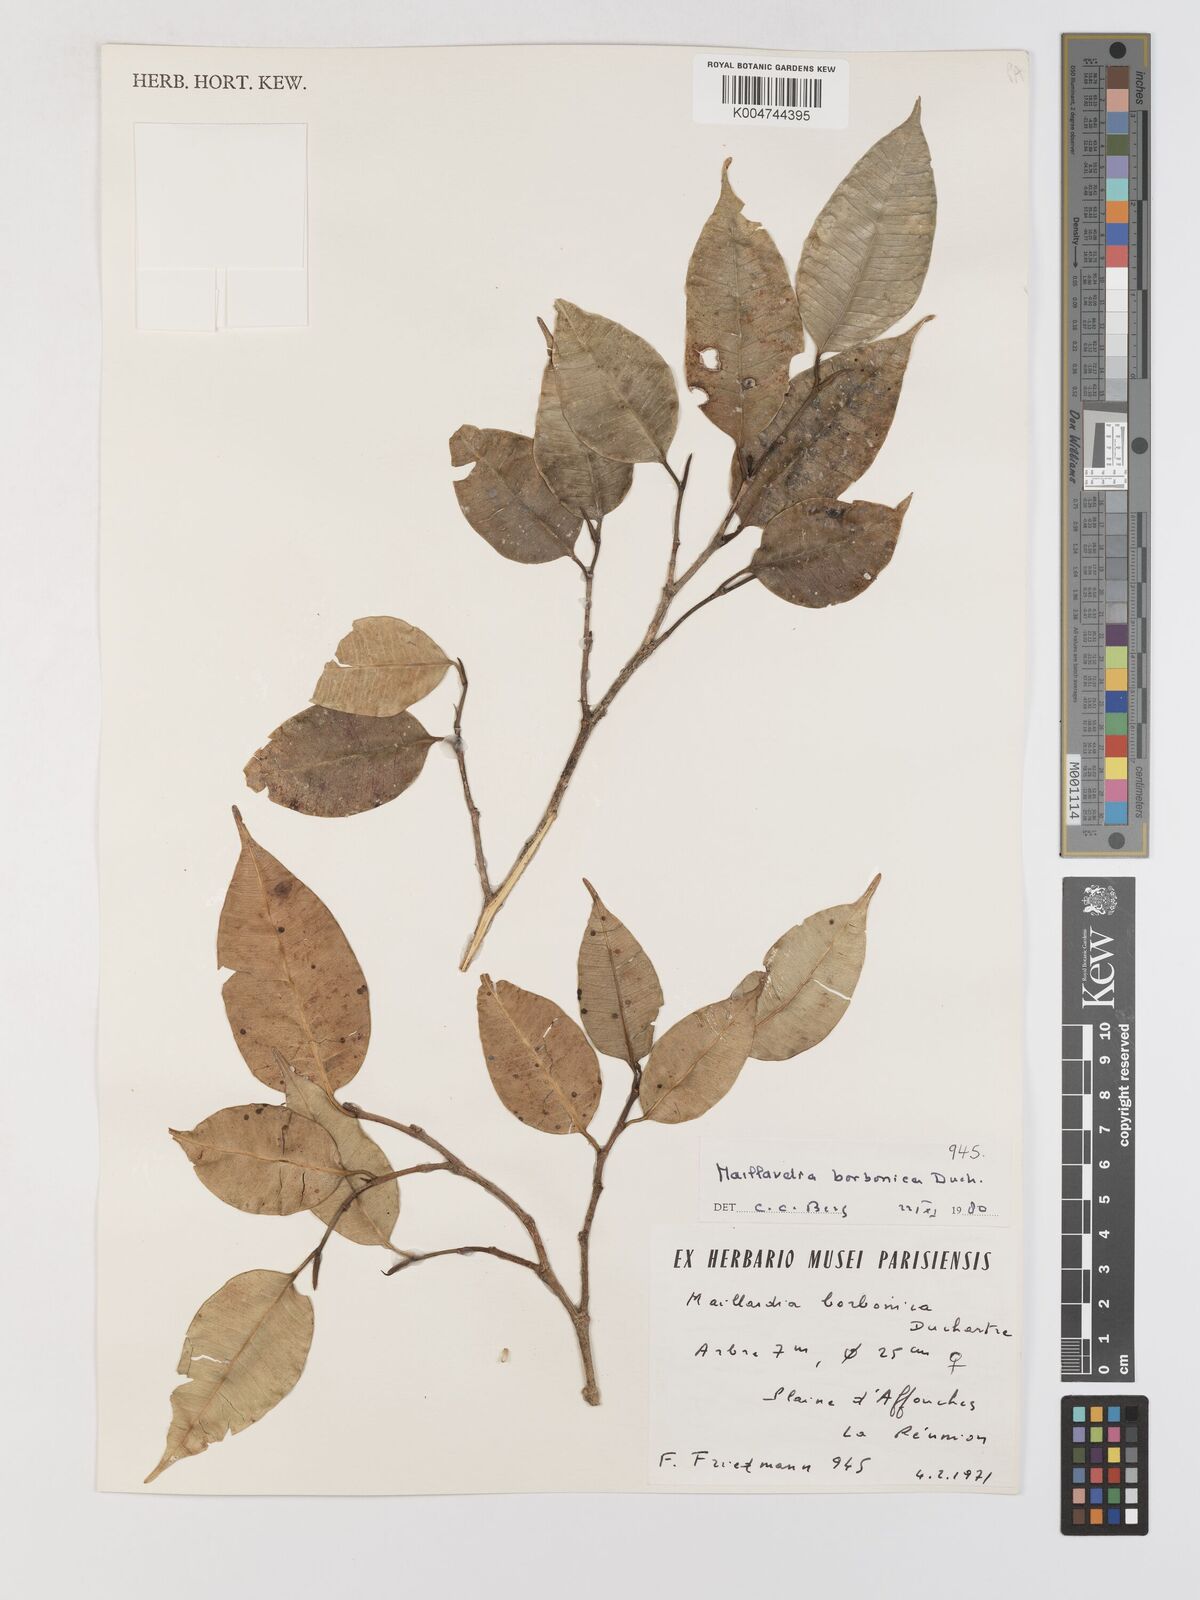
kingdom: Plantae
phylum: Tracheophyta
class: Magnoliopsida
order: Rosales
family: Moraceae
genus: Maillardia
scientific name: Maillardia borbonica
